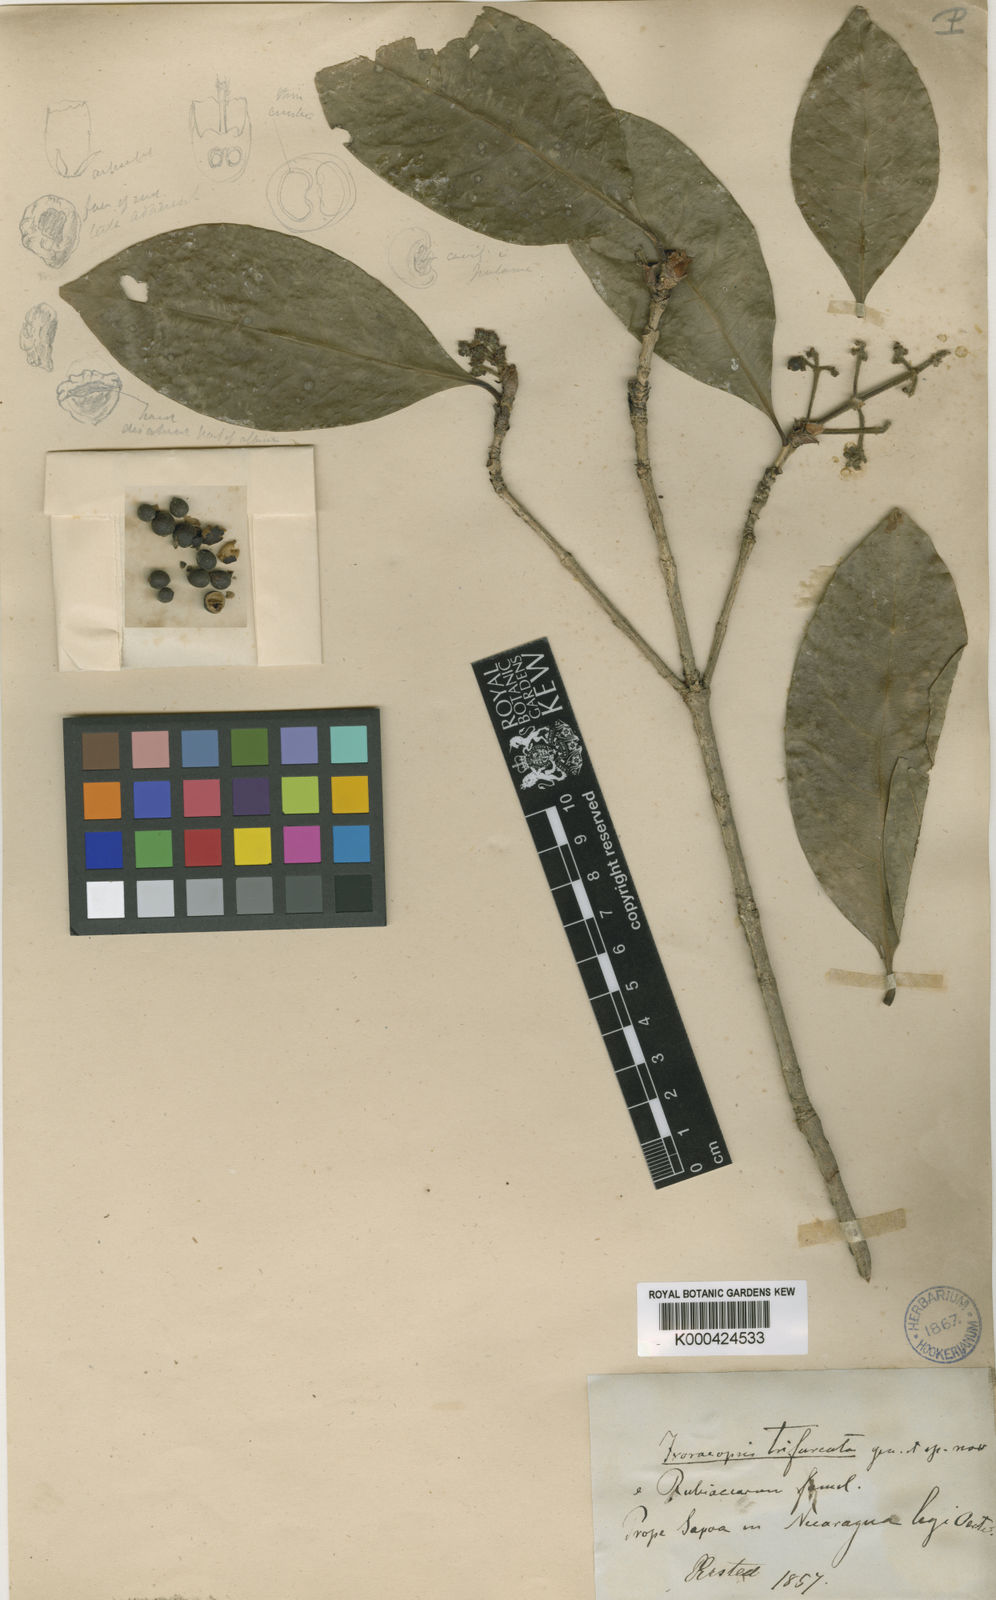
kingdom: Plantae
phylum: Tracheophyta
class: Magnoliopsida
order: Gentianales
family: Rubiaceae
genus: Ixora
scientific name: Ixora
